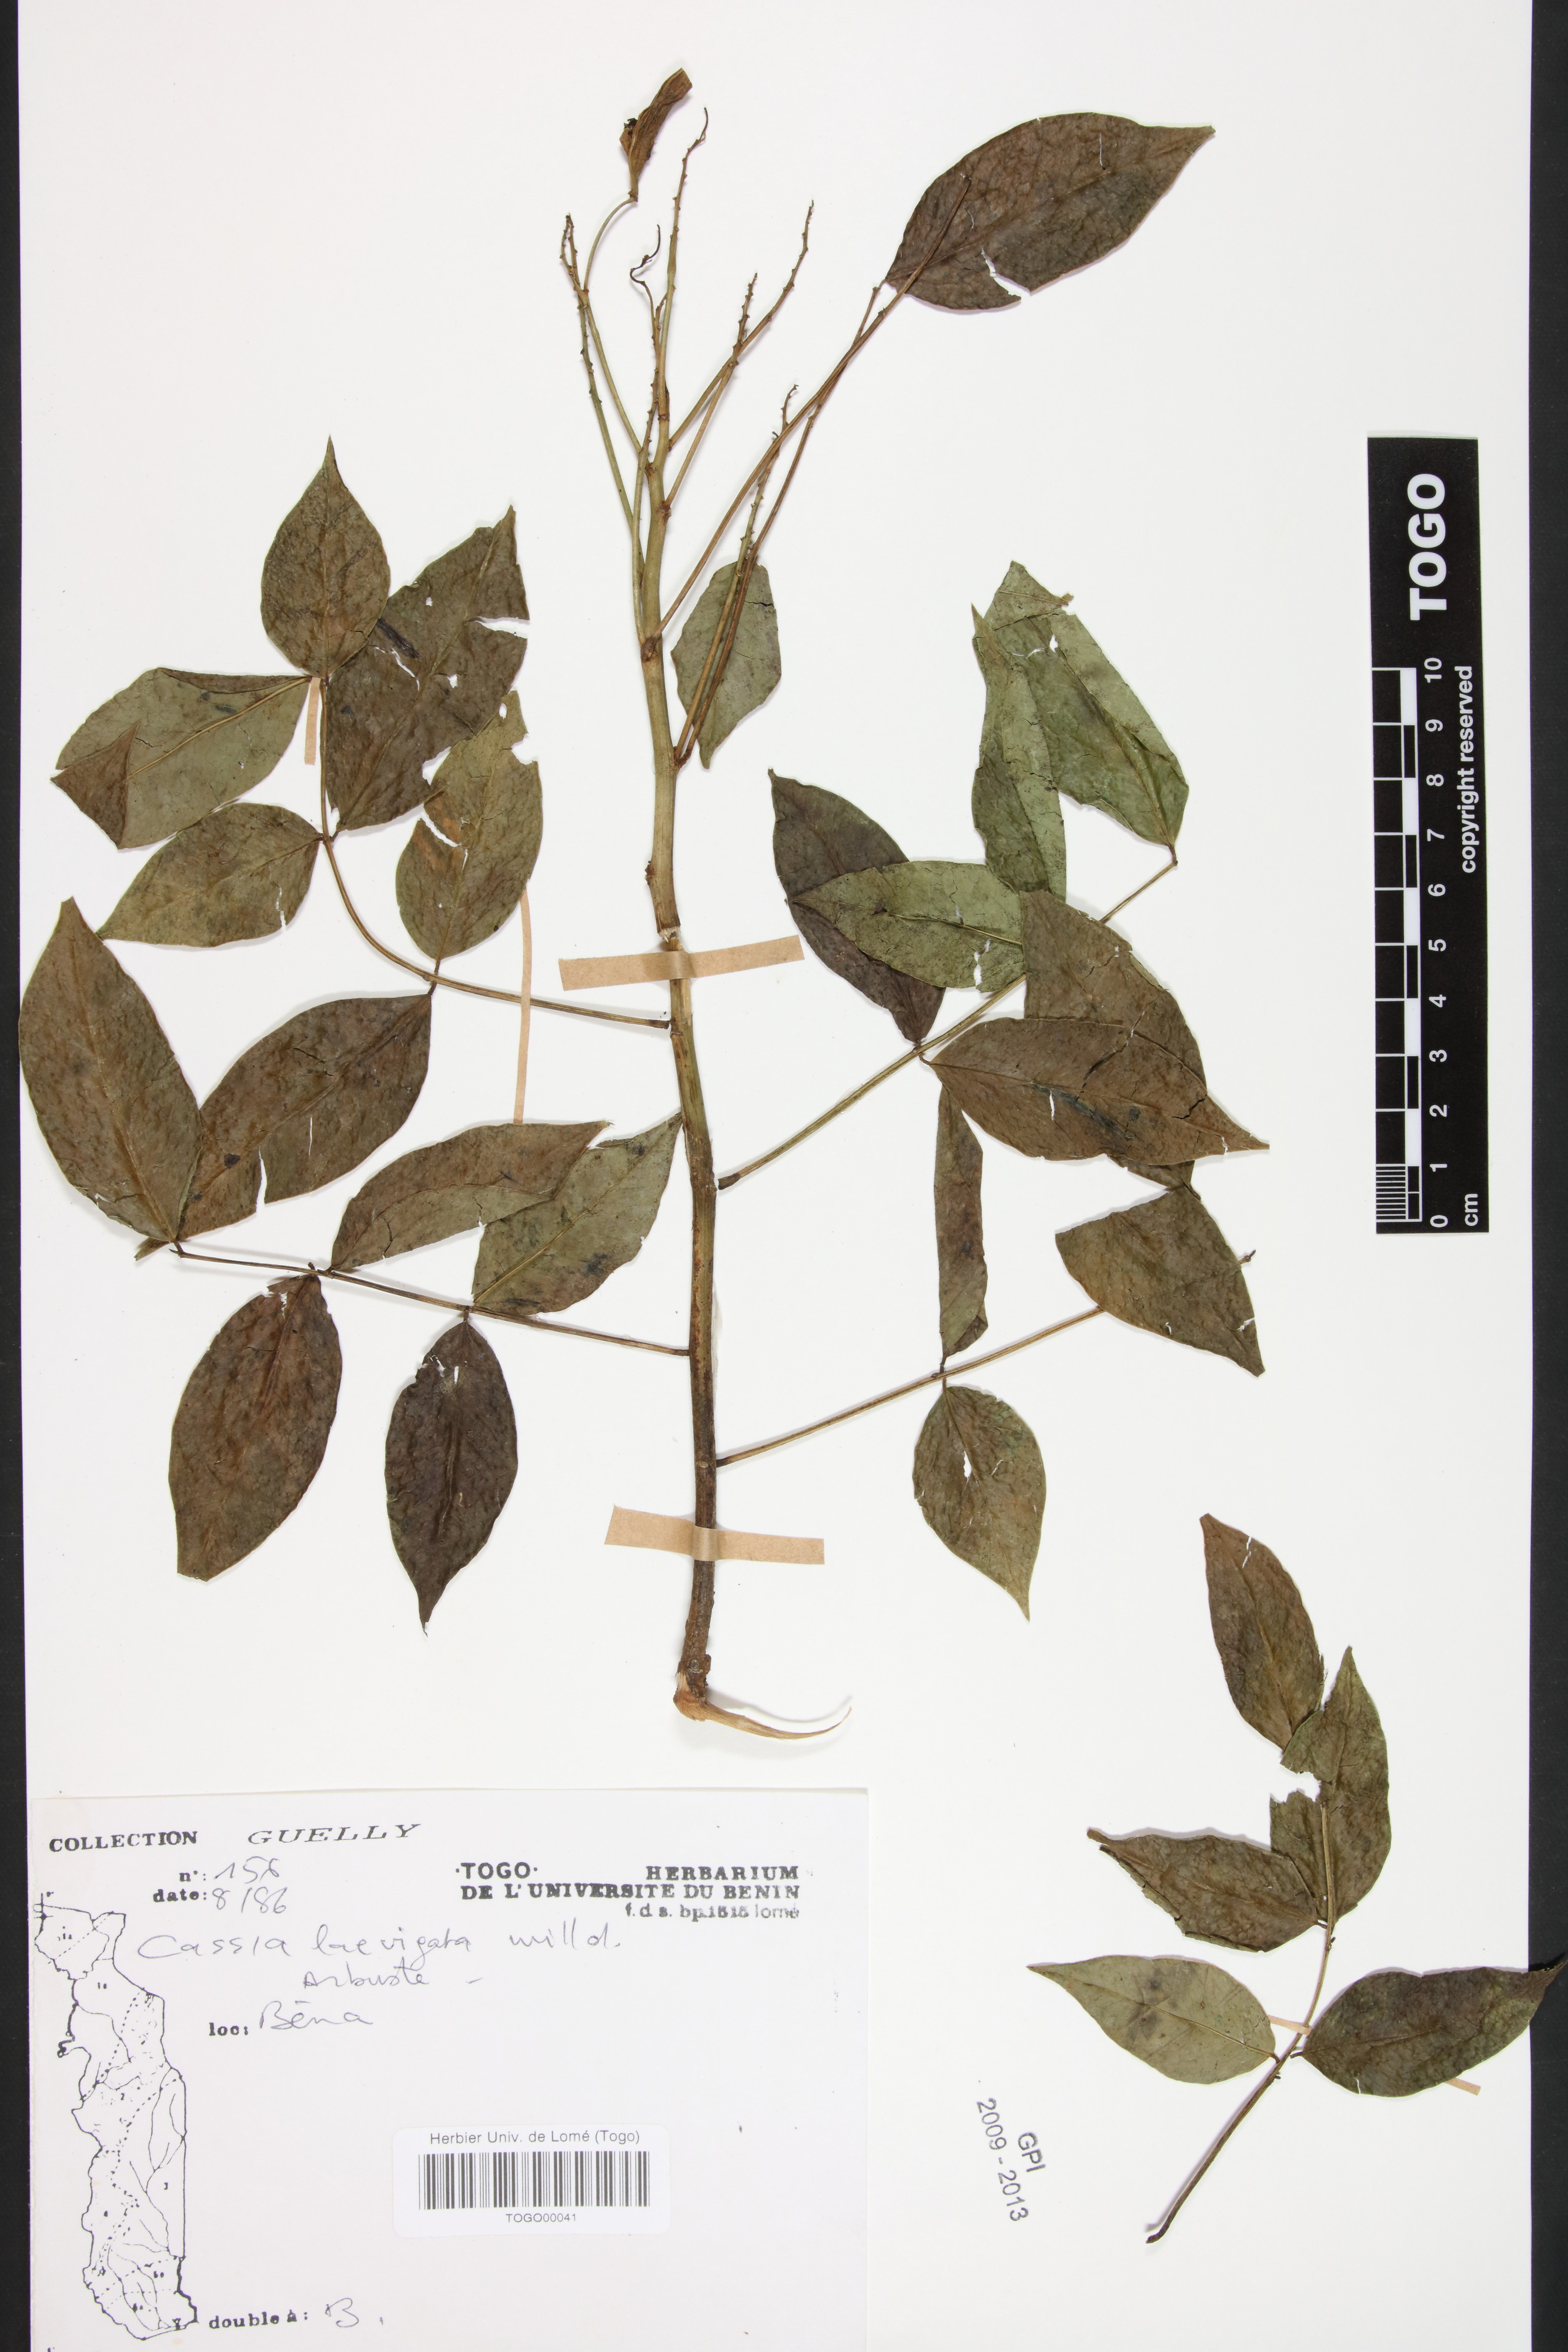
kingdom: Plantae
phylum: Tracheophyta
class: Magnoliopsida
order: Fabales
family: Fabaceae
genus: Senna
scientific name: Senna
